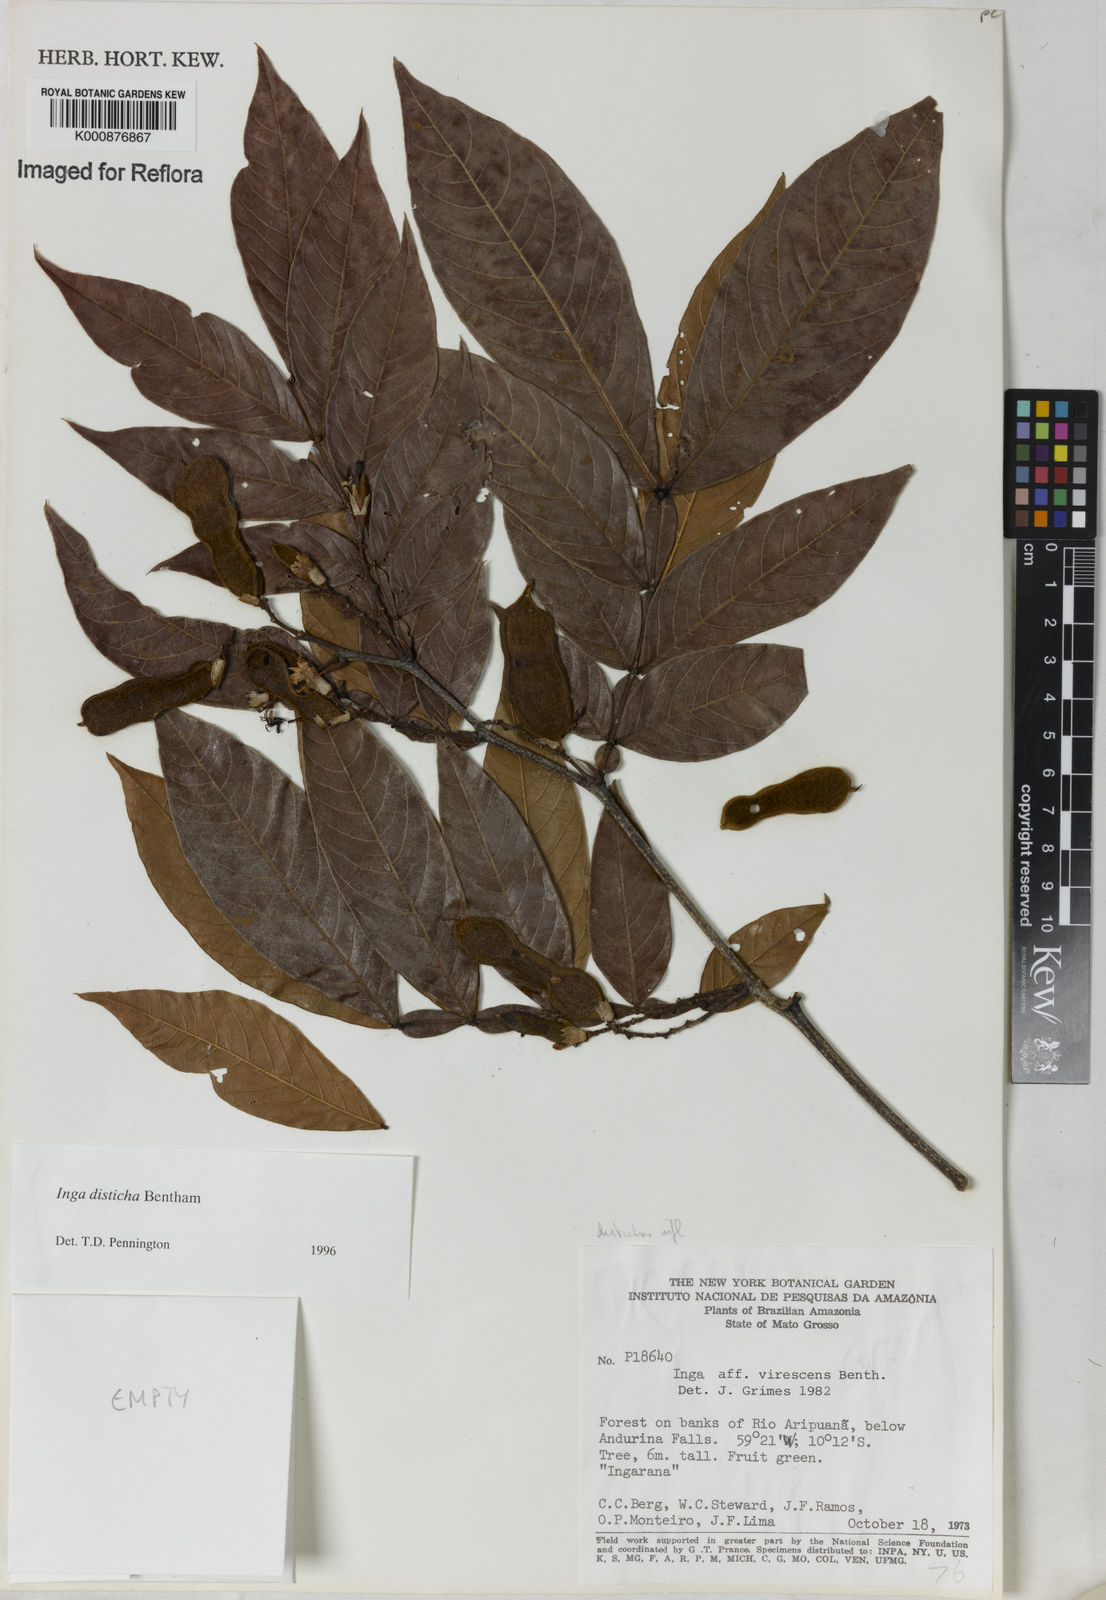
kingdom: Plantae
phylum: Tracheophyta
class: Magnoliopsida
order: Fabales
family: Fabaceae
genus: Inga
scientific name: Inga disticha
